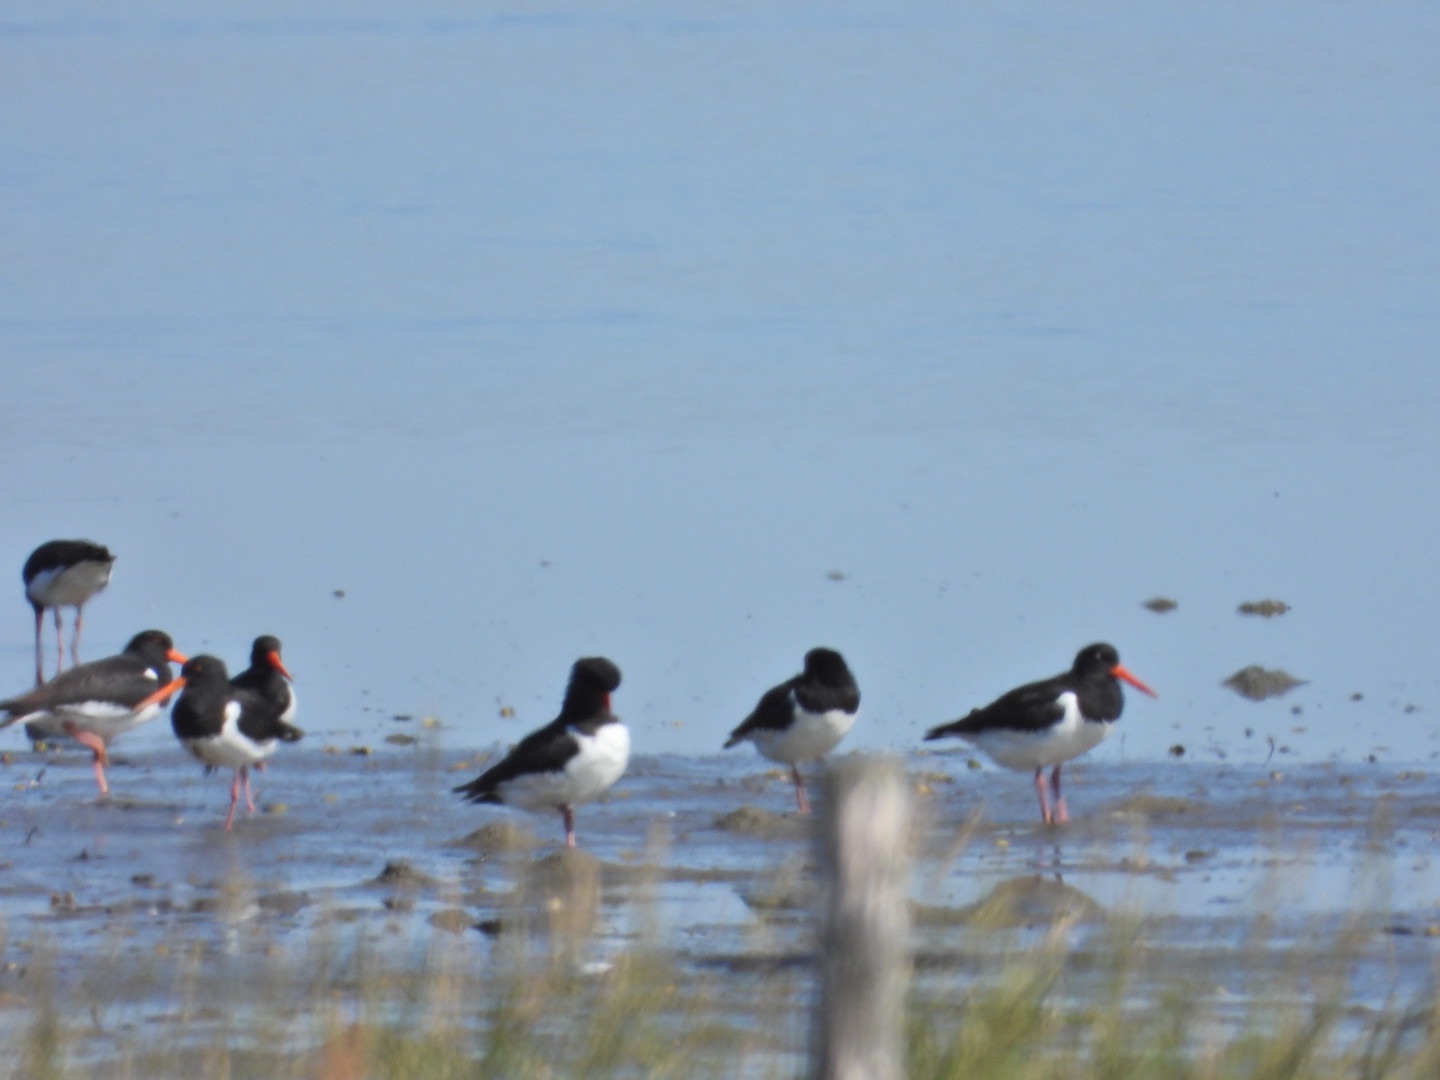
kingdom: Animalia
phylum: Chordata
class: Aves
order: Charadriiformes
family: Haematopodidae
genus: Haematopus
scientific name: Haematopus ostralegus
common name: Strandskade
